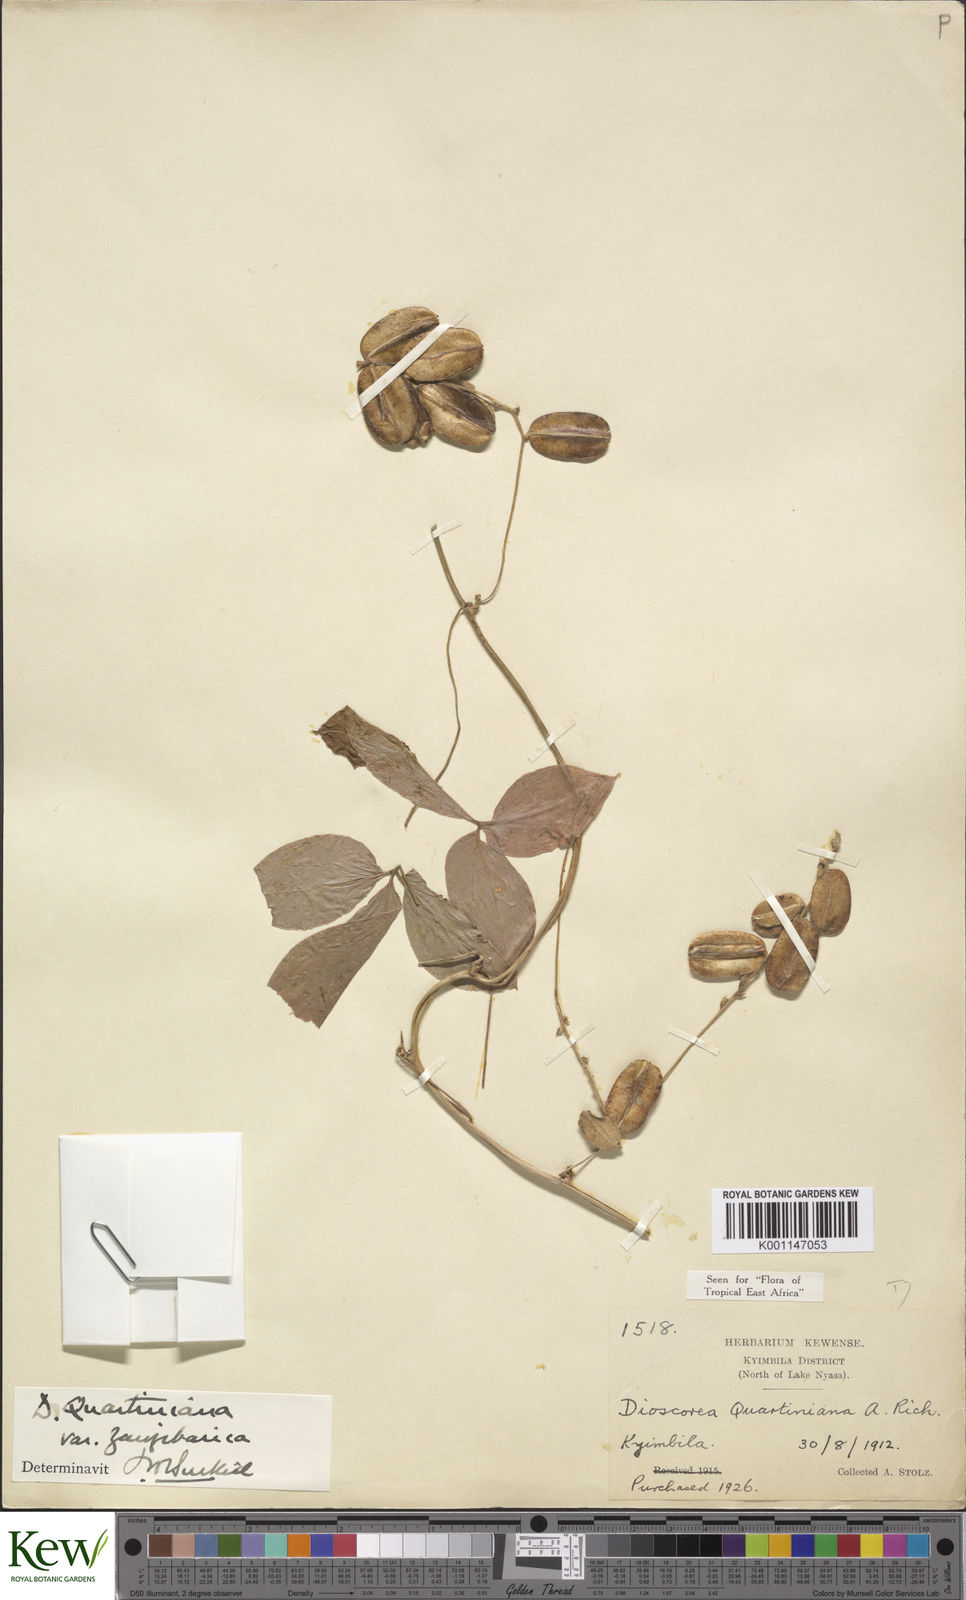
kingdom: Plantae
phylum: Tracheophyta
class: Liliopsida
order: Dioscoreales
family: Dioscoreaceae
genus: Dioscorea
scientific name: Dioscorea quartiniana
